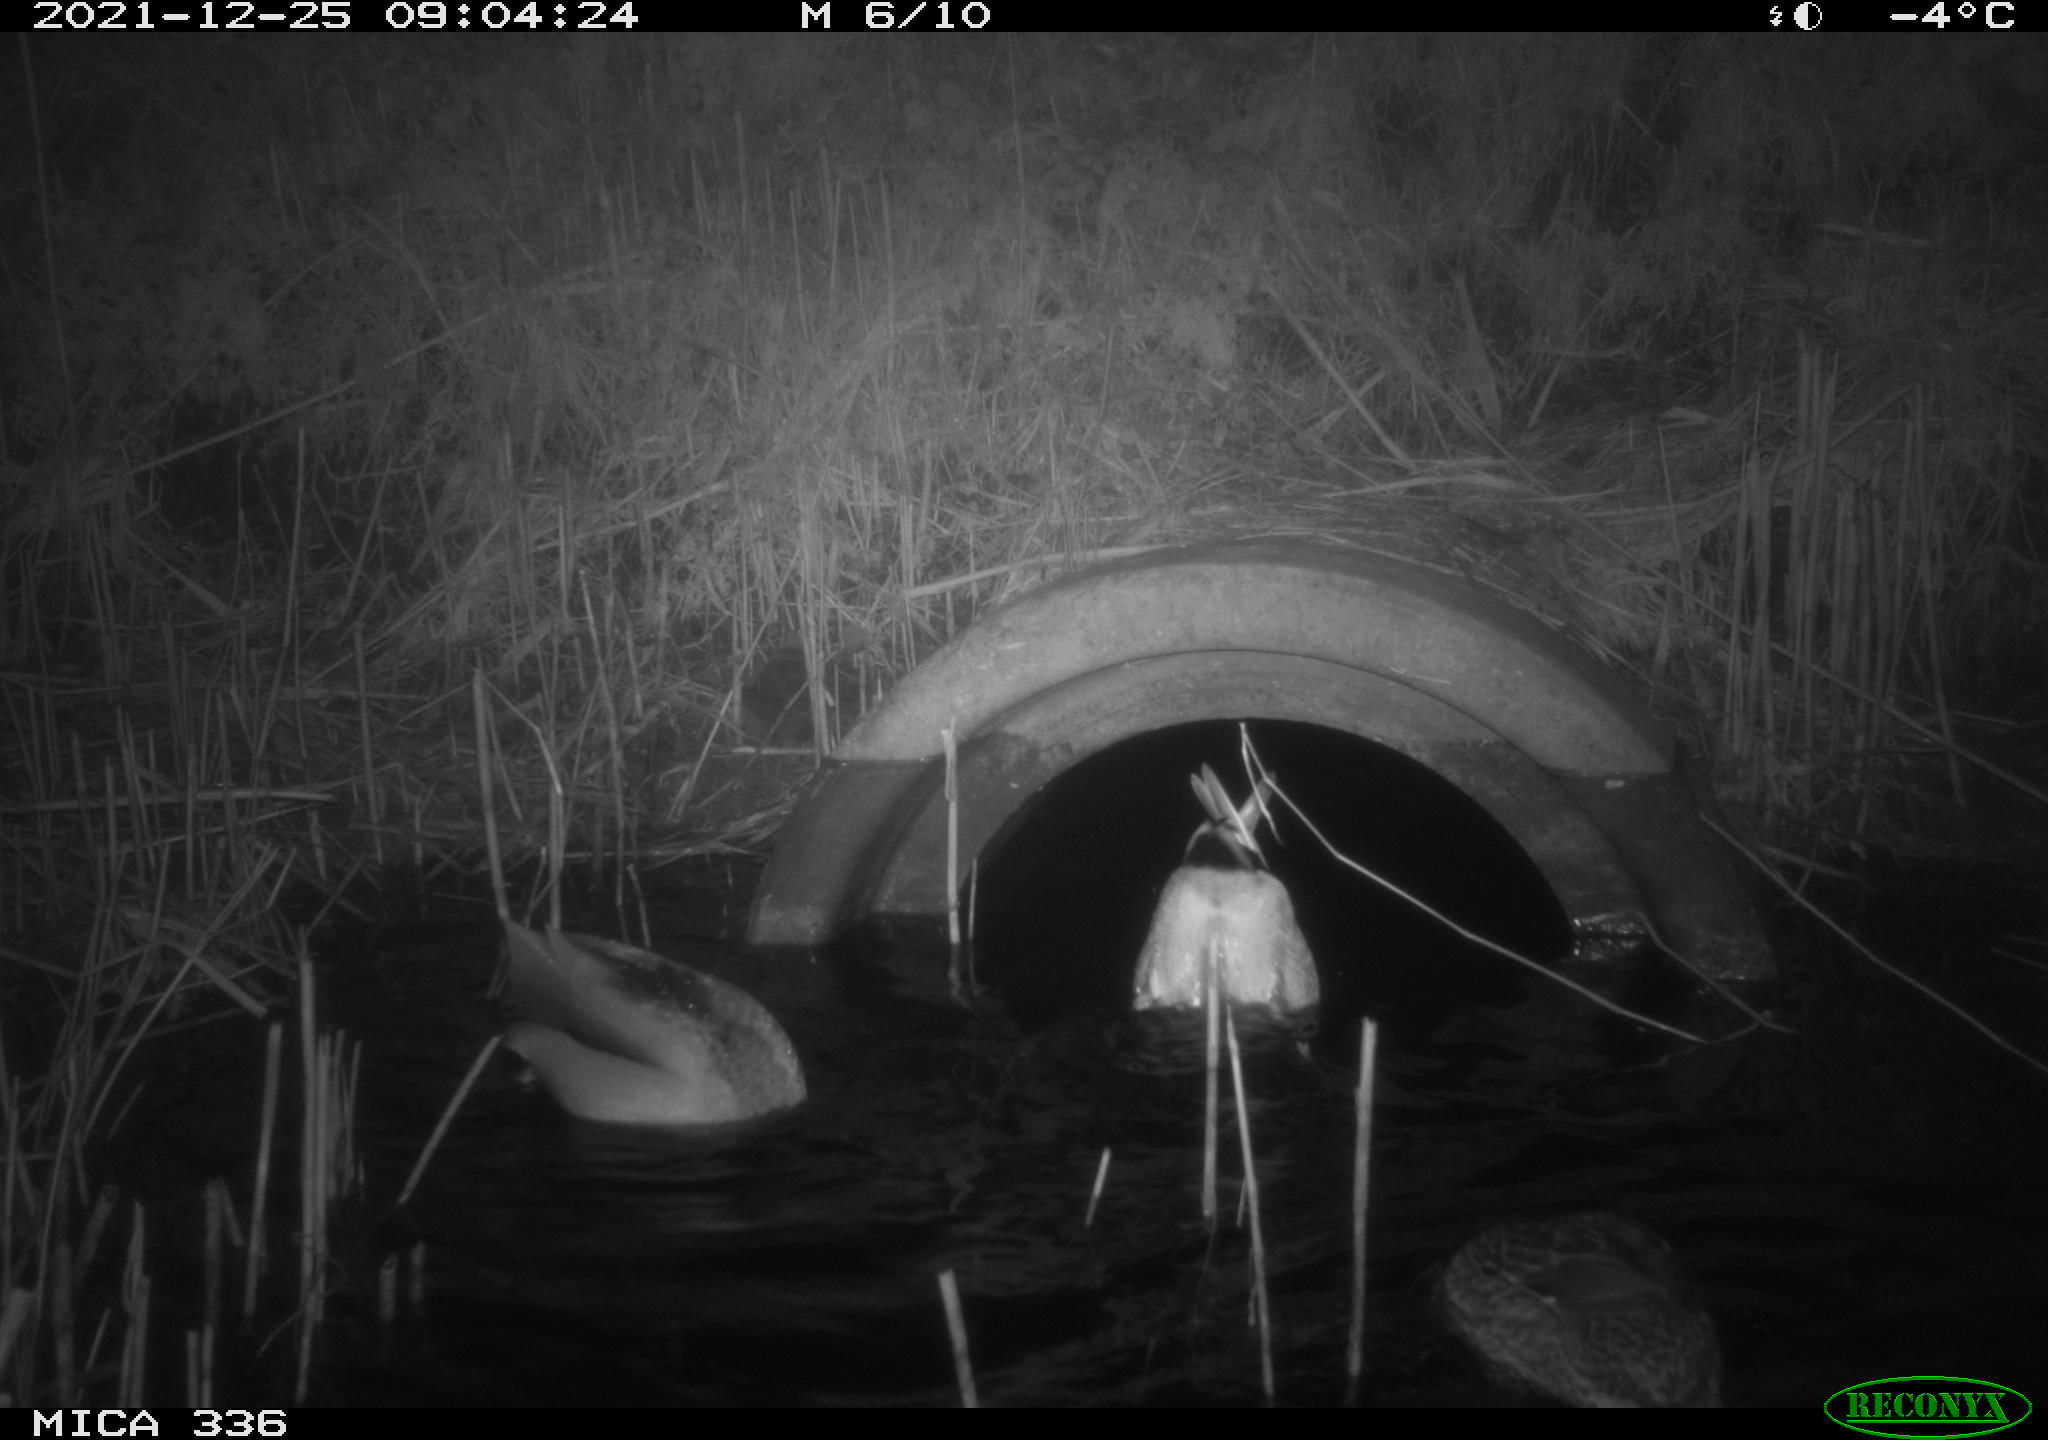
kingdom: Animalia
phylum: Chordata
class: Aves
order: Anseriformes
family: Anatidae
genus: Anas
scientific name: Anas platyrhynchos
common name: Mallard
